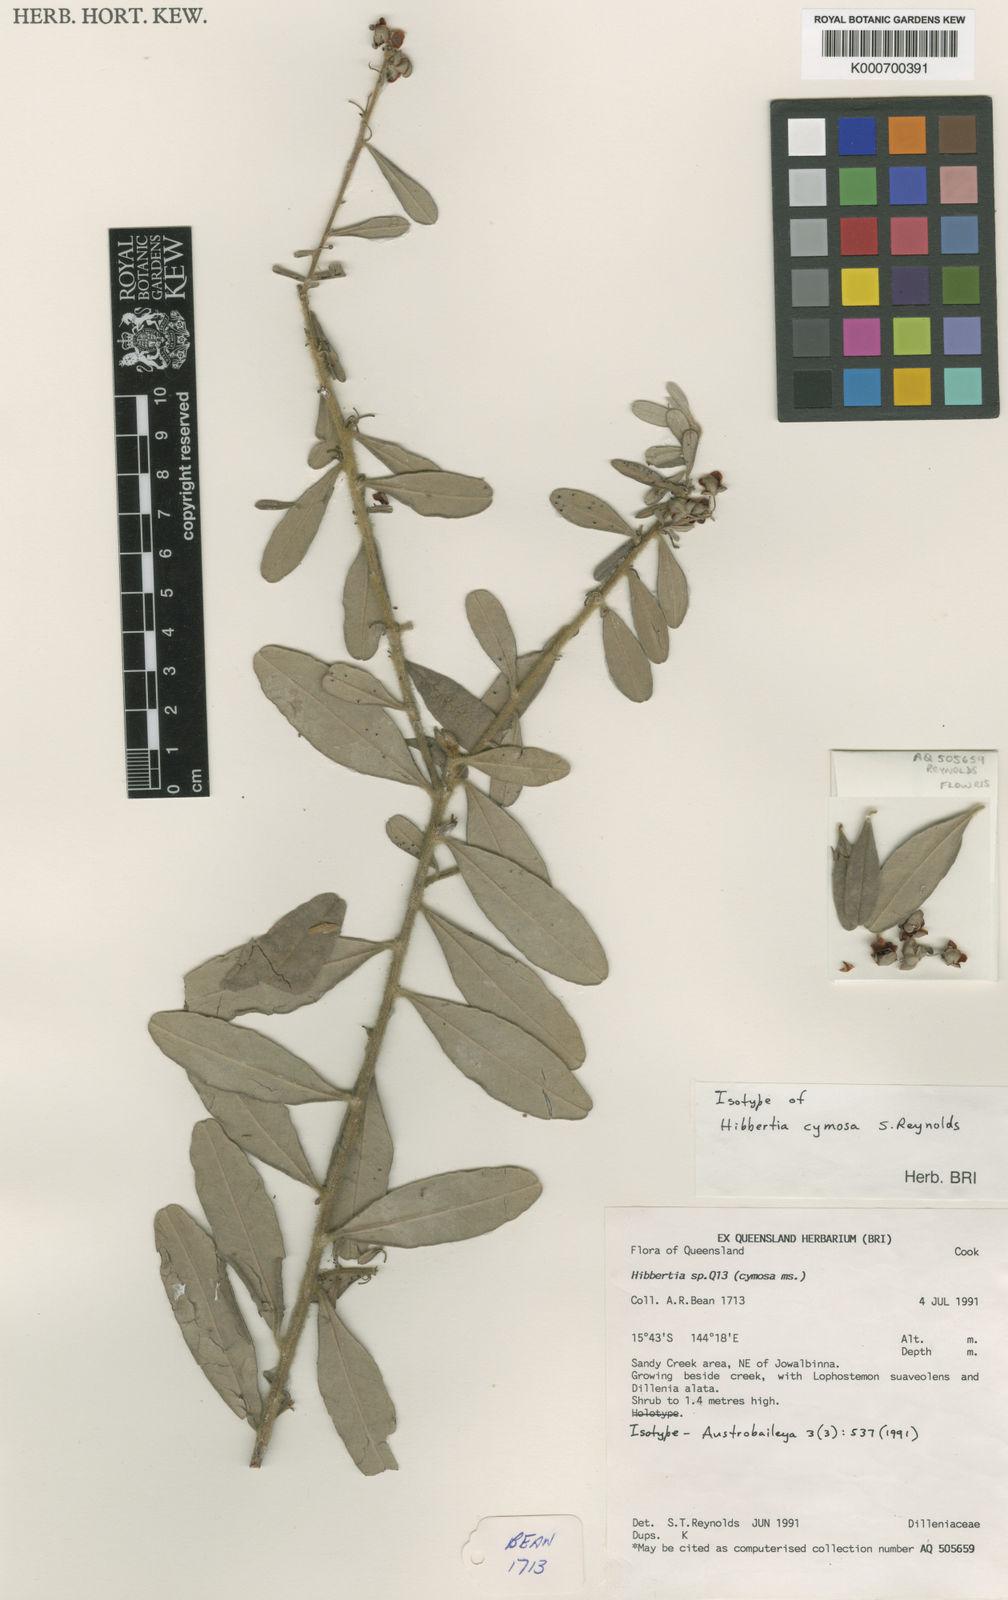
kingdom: Plantae
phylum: Tracheophyta
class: Magnoliopsida
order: Dilleniales
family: Dilleniaceae
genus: Hibbertia
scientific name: Hibbertia cymosa
